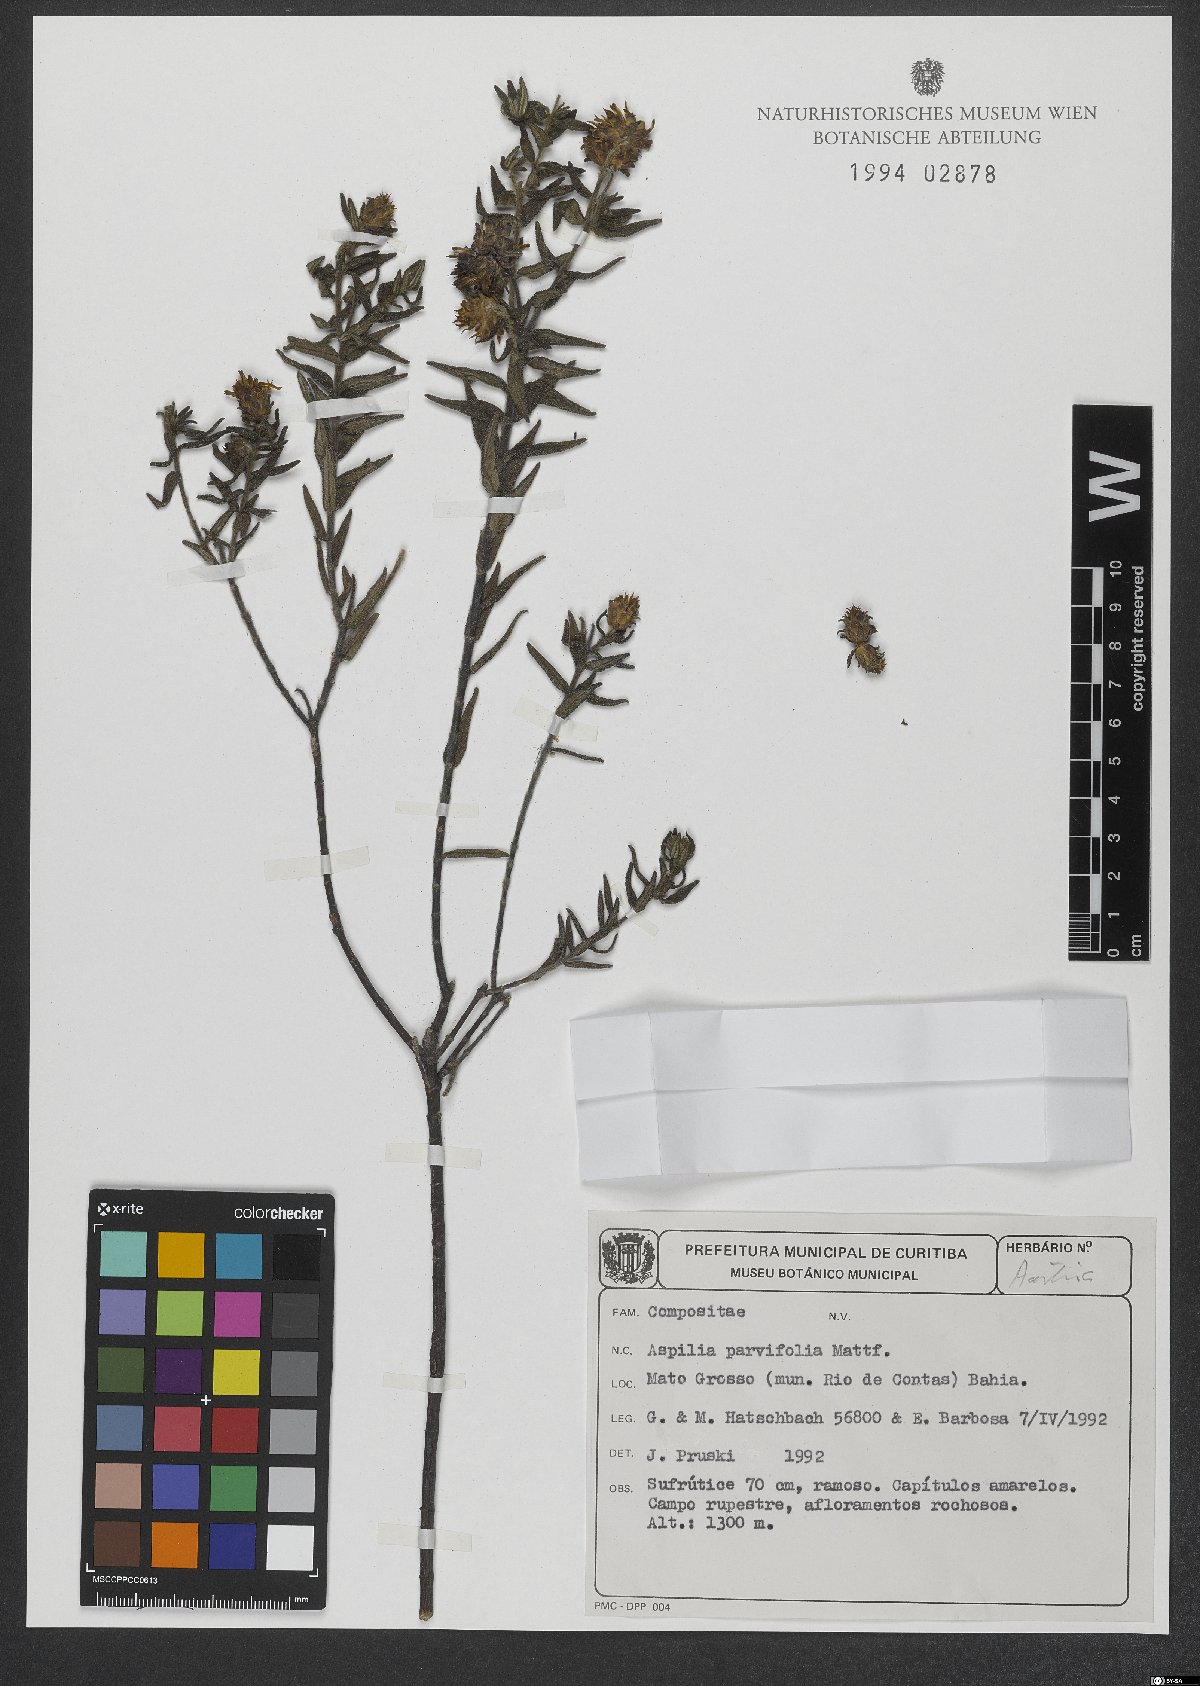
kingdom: Plantae
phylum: Tracheophyta
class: Magnoliopsida
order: Asterales
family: Asteraceae
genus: Aspilia
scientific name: Aspilia foliosa
